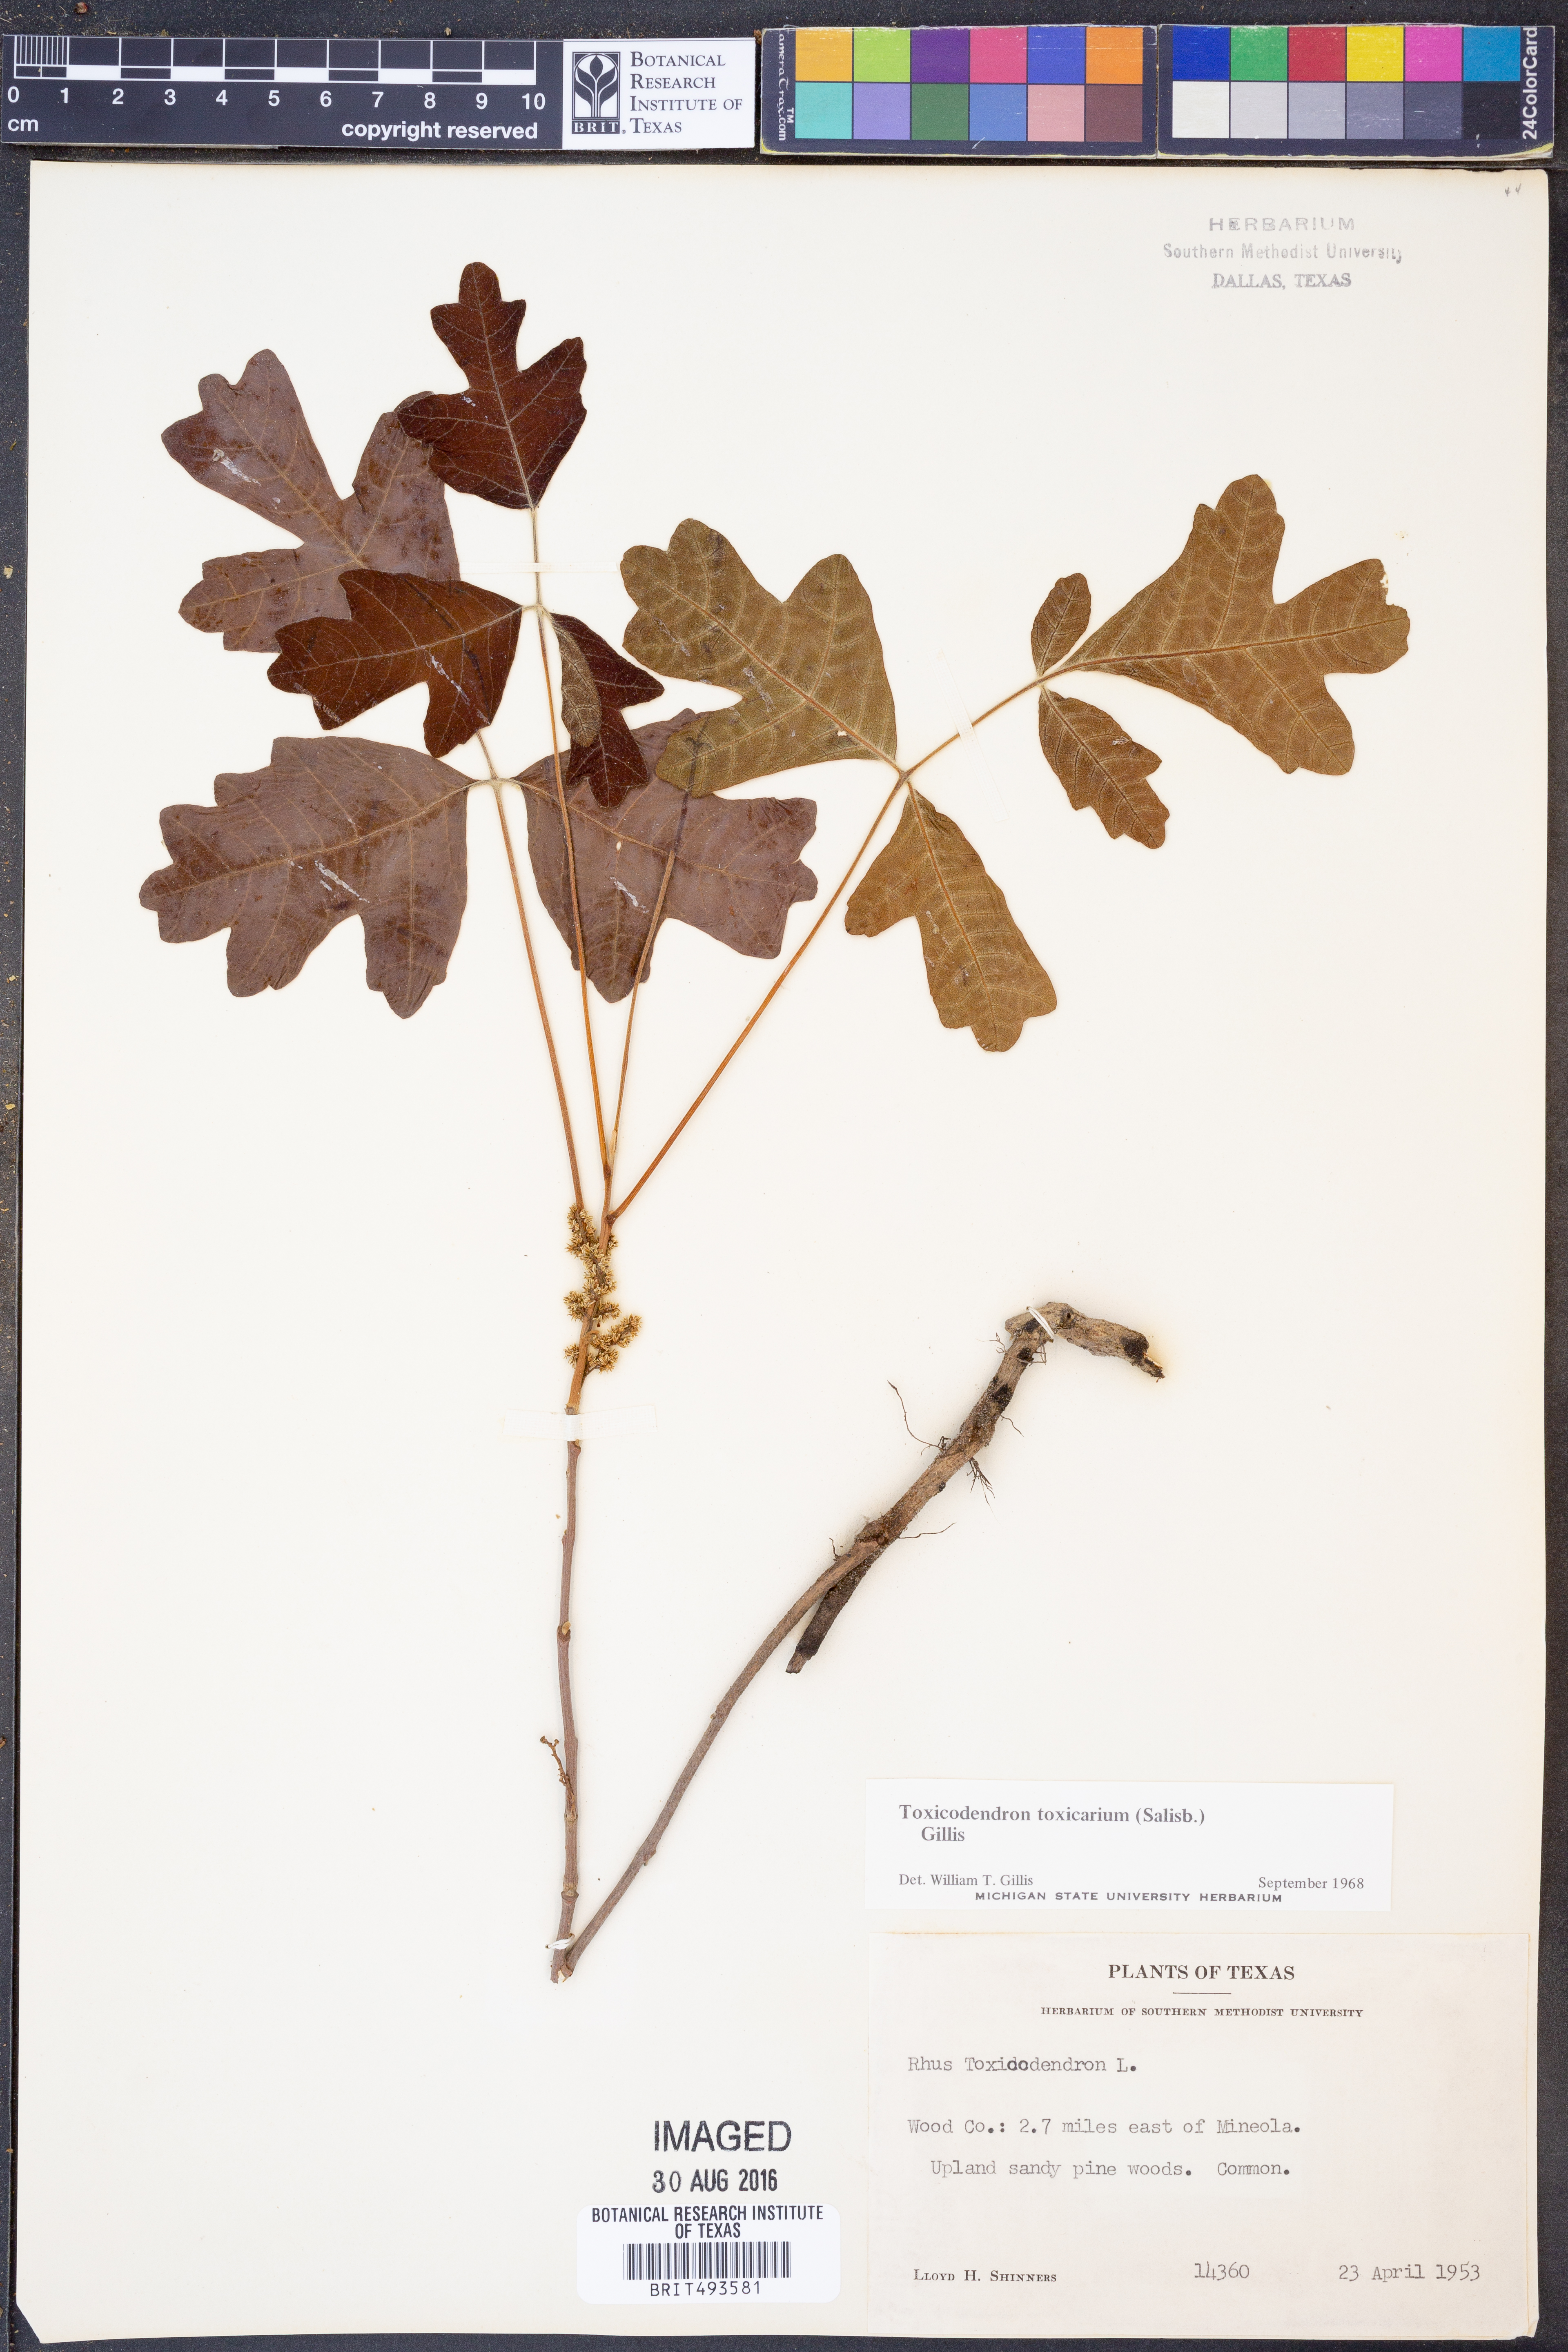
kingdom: Plantae
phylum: Tracheophyta
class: Magnoliopsida
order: Sapindales
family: Anacardiaceae
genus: Toxicodendron
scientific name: Toxicodendron pubescens
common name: Eastern poison-oak
